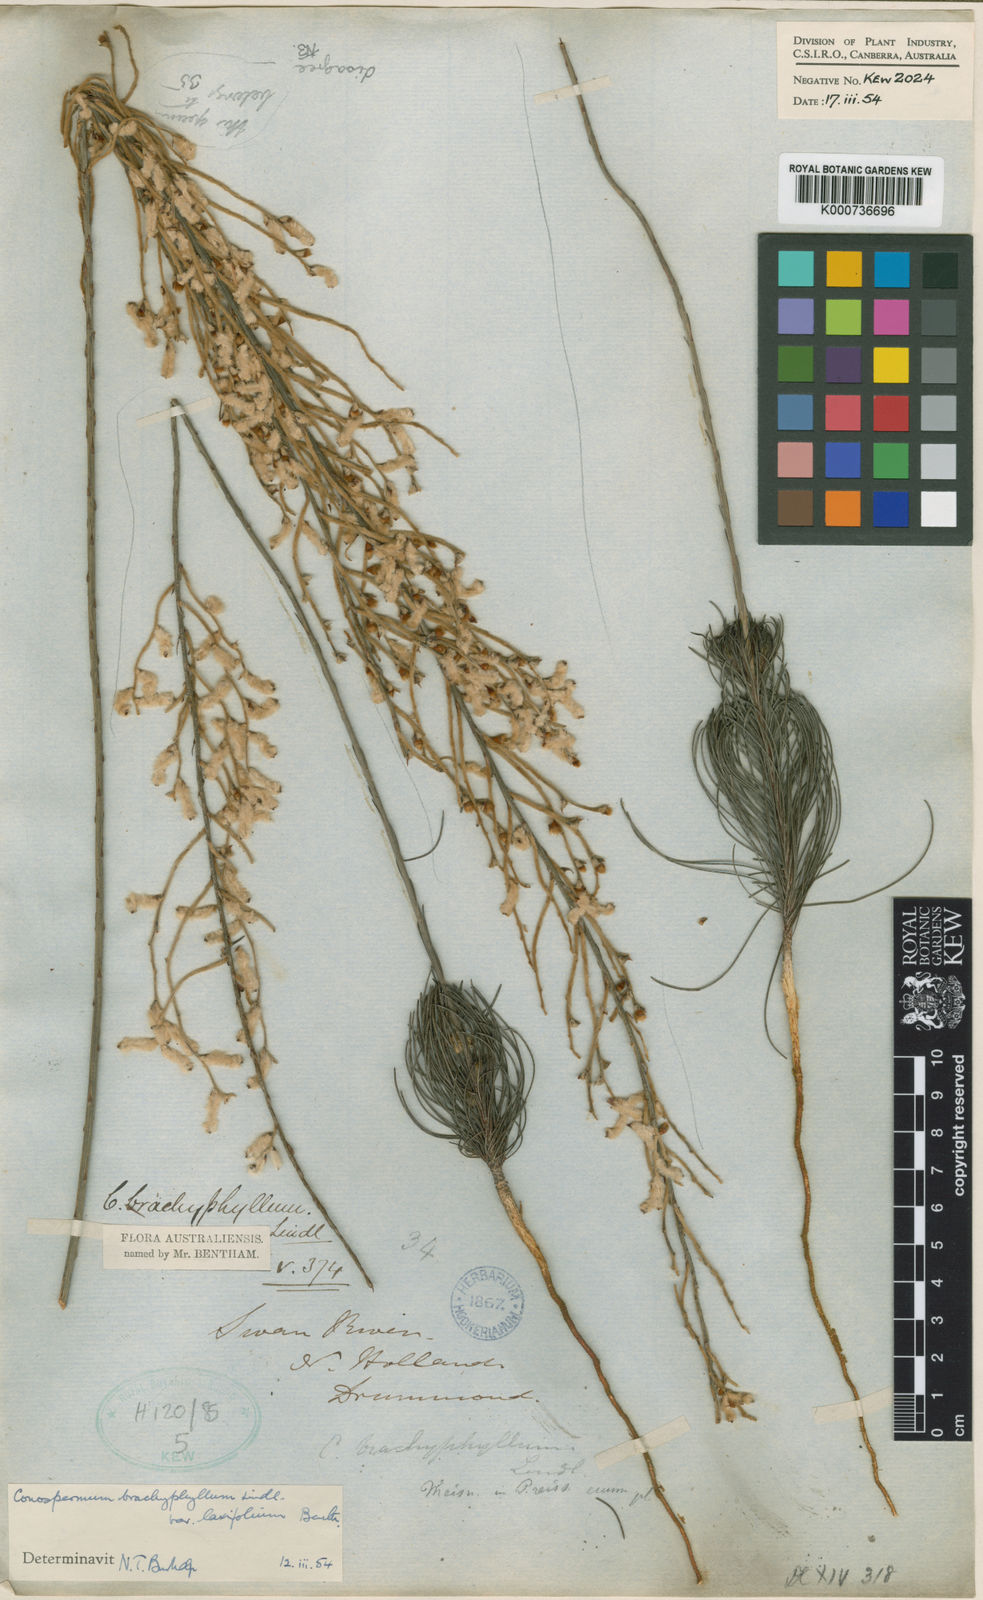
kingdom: Plantae
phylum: Tracheophyta
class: Magnoliopsida
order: Proteales
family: Proteaceae
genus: Conospermum
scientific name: Conospermum brachyphyllum
